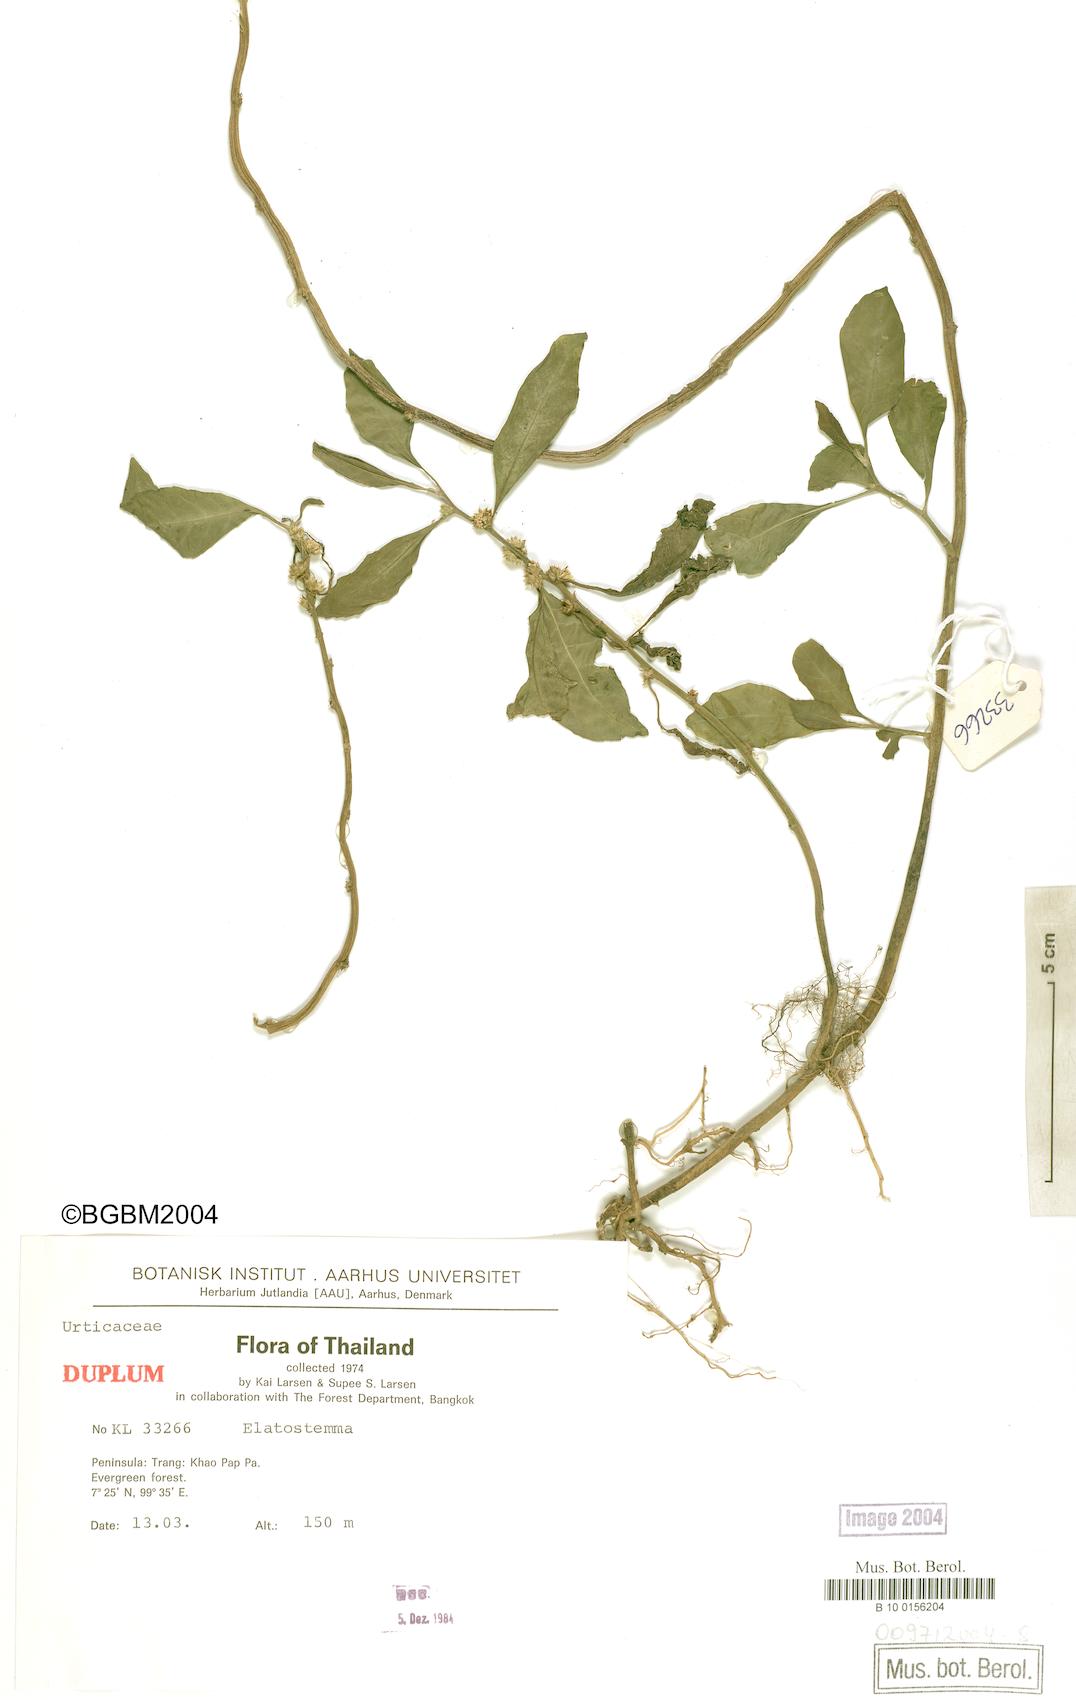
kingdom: Plantae
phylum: Tracheophyta
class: Magnoliopsida
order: Rosales
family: Urticaceae
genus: Elatostema
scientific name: Elatostema
